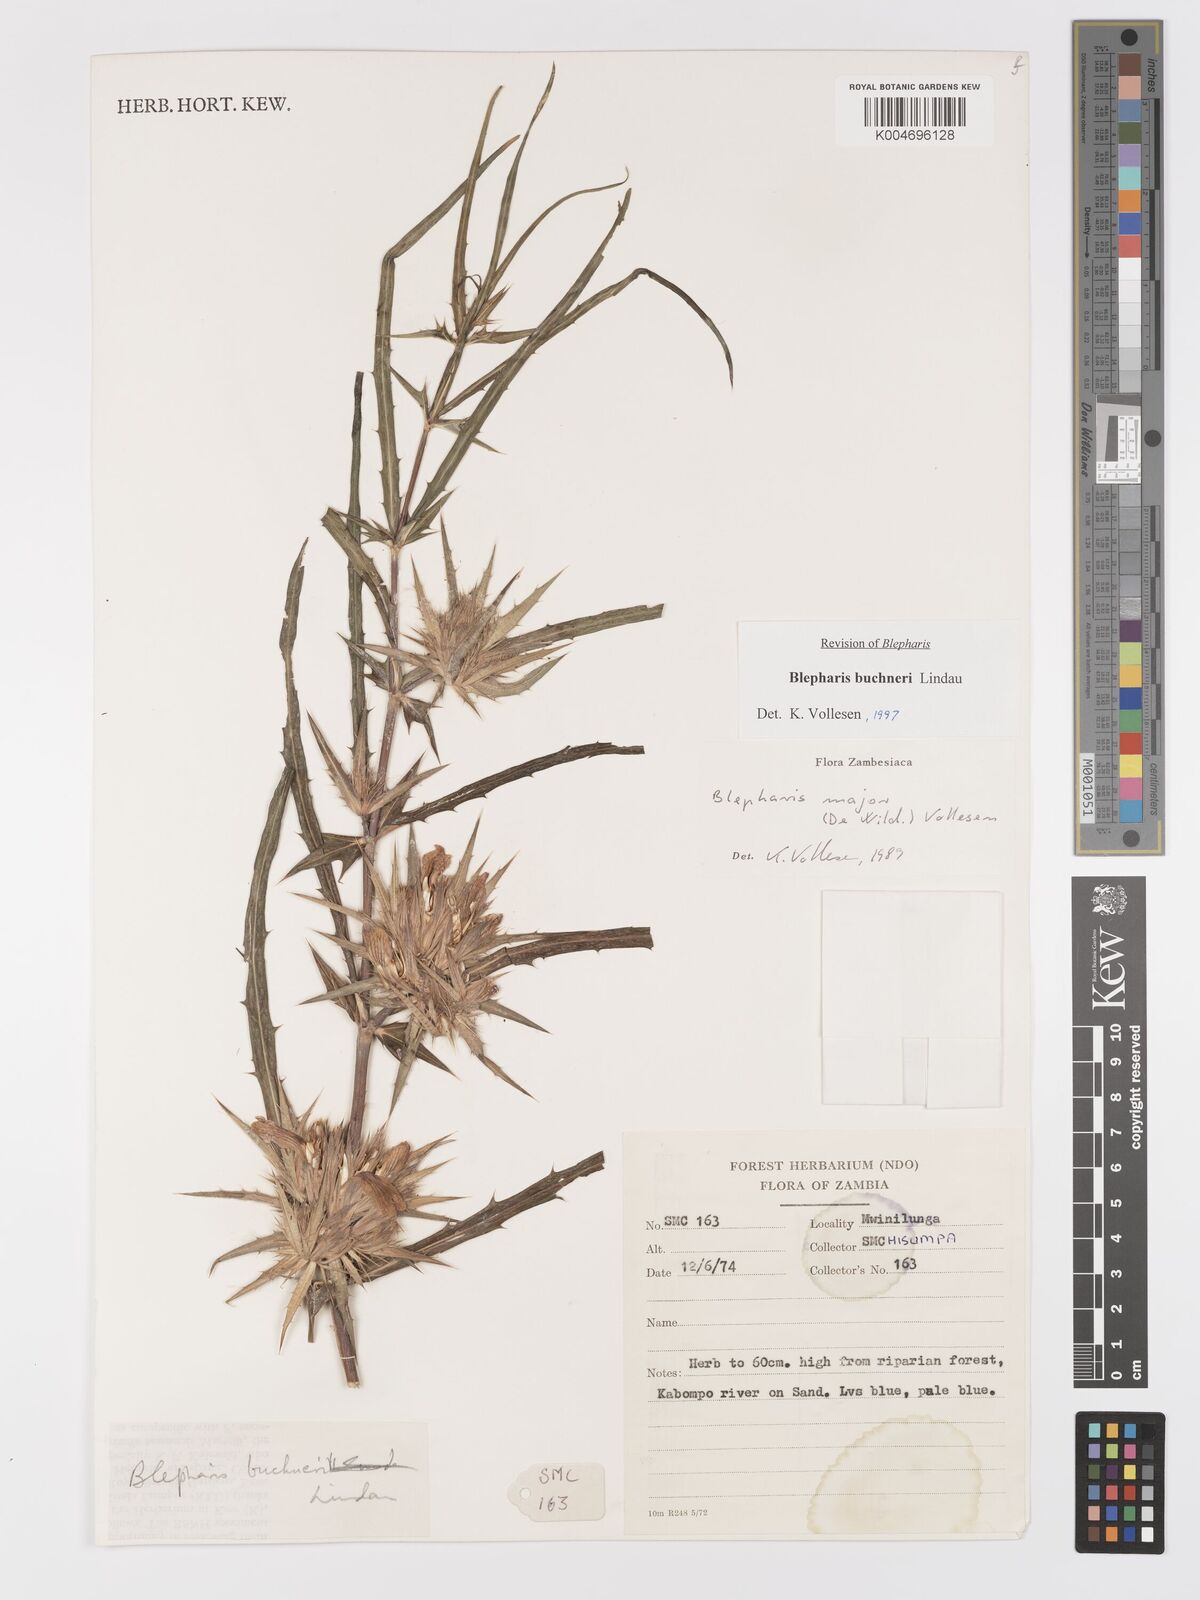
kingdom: Plantae
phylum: Tracheophyta
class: Magnoliopsida
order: Lamiales
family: Acanthaceae
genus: Blepharis
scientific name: Blepharis buchneri
